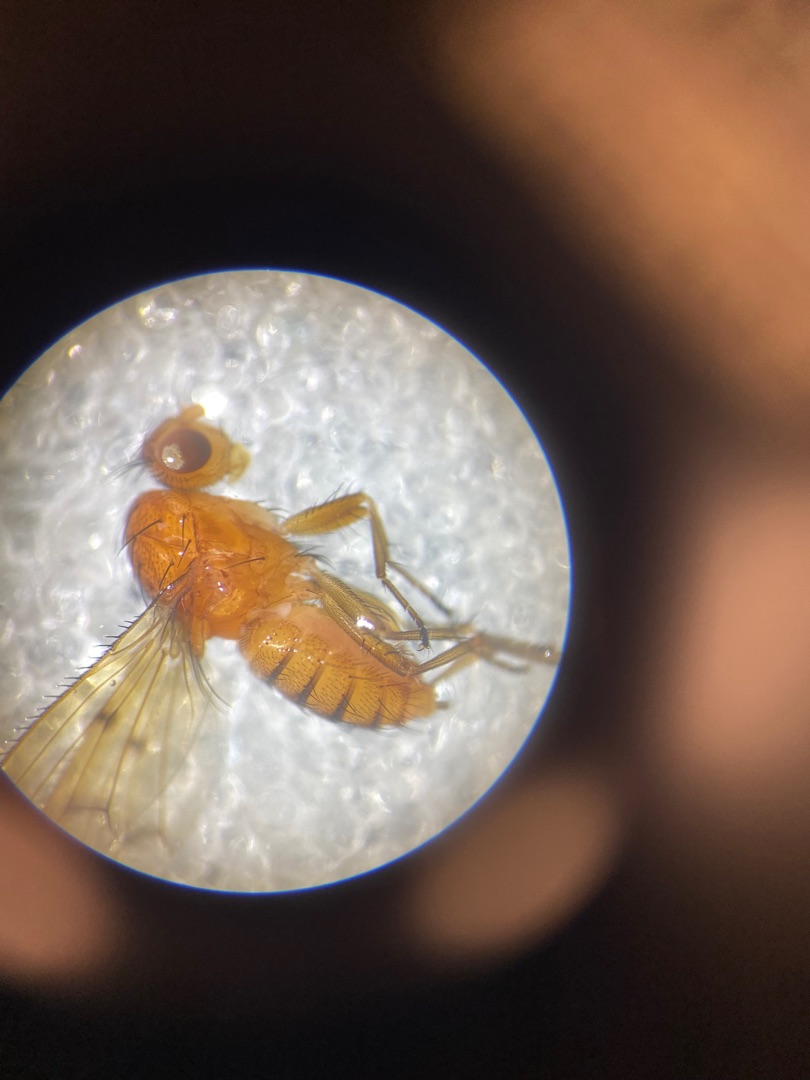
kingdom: Animalia
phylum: Arthropoda
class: Insecta
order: Diptera
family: Opomyzidae
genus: Opomyza
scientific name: Opomyza florum
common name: Gul græsflue
